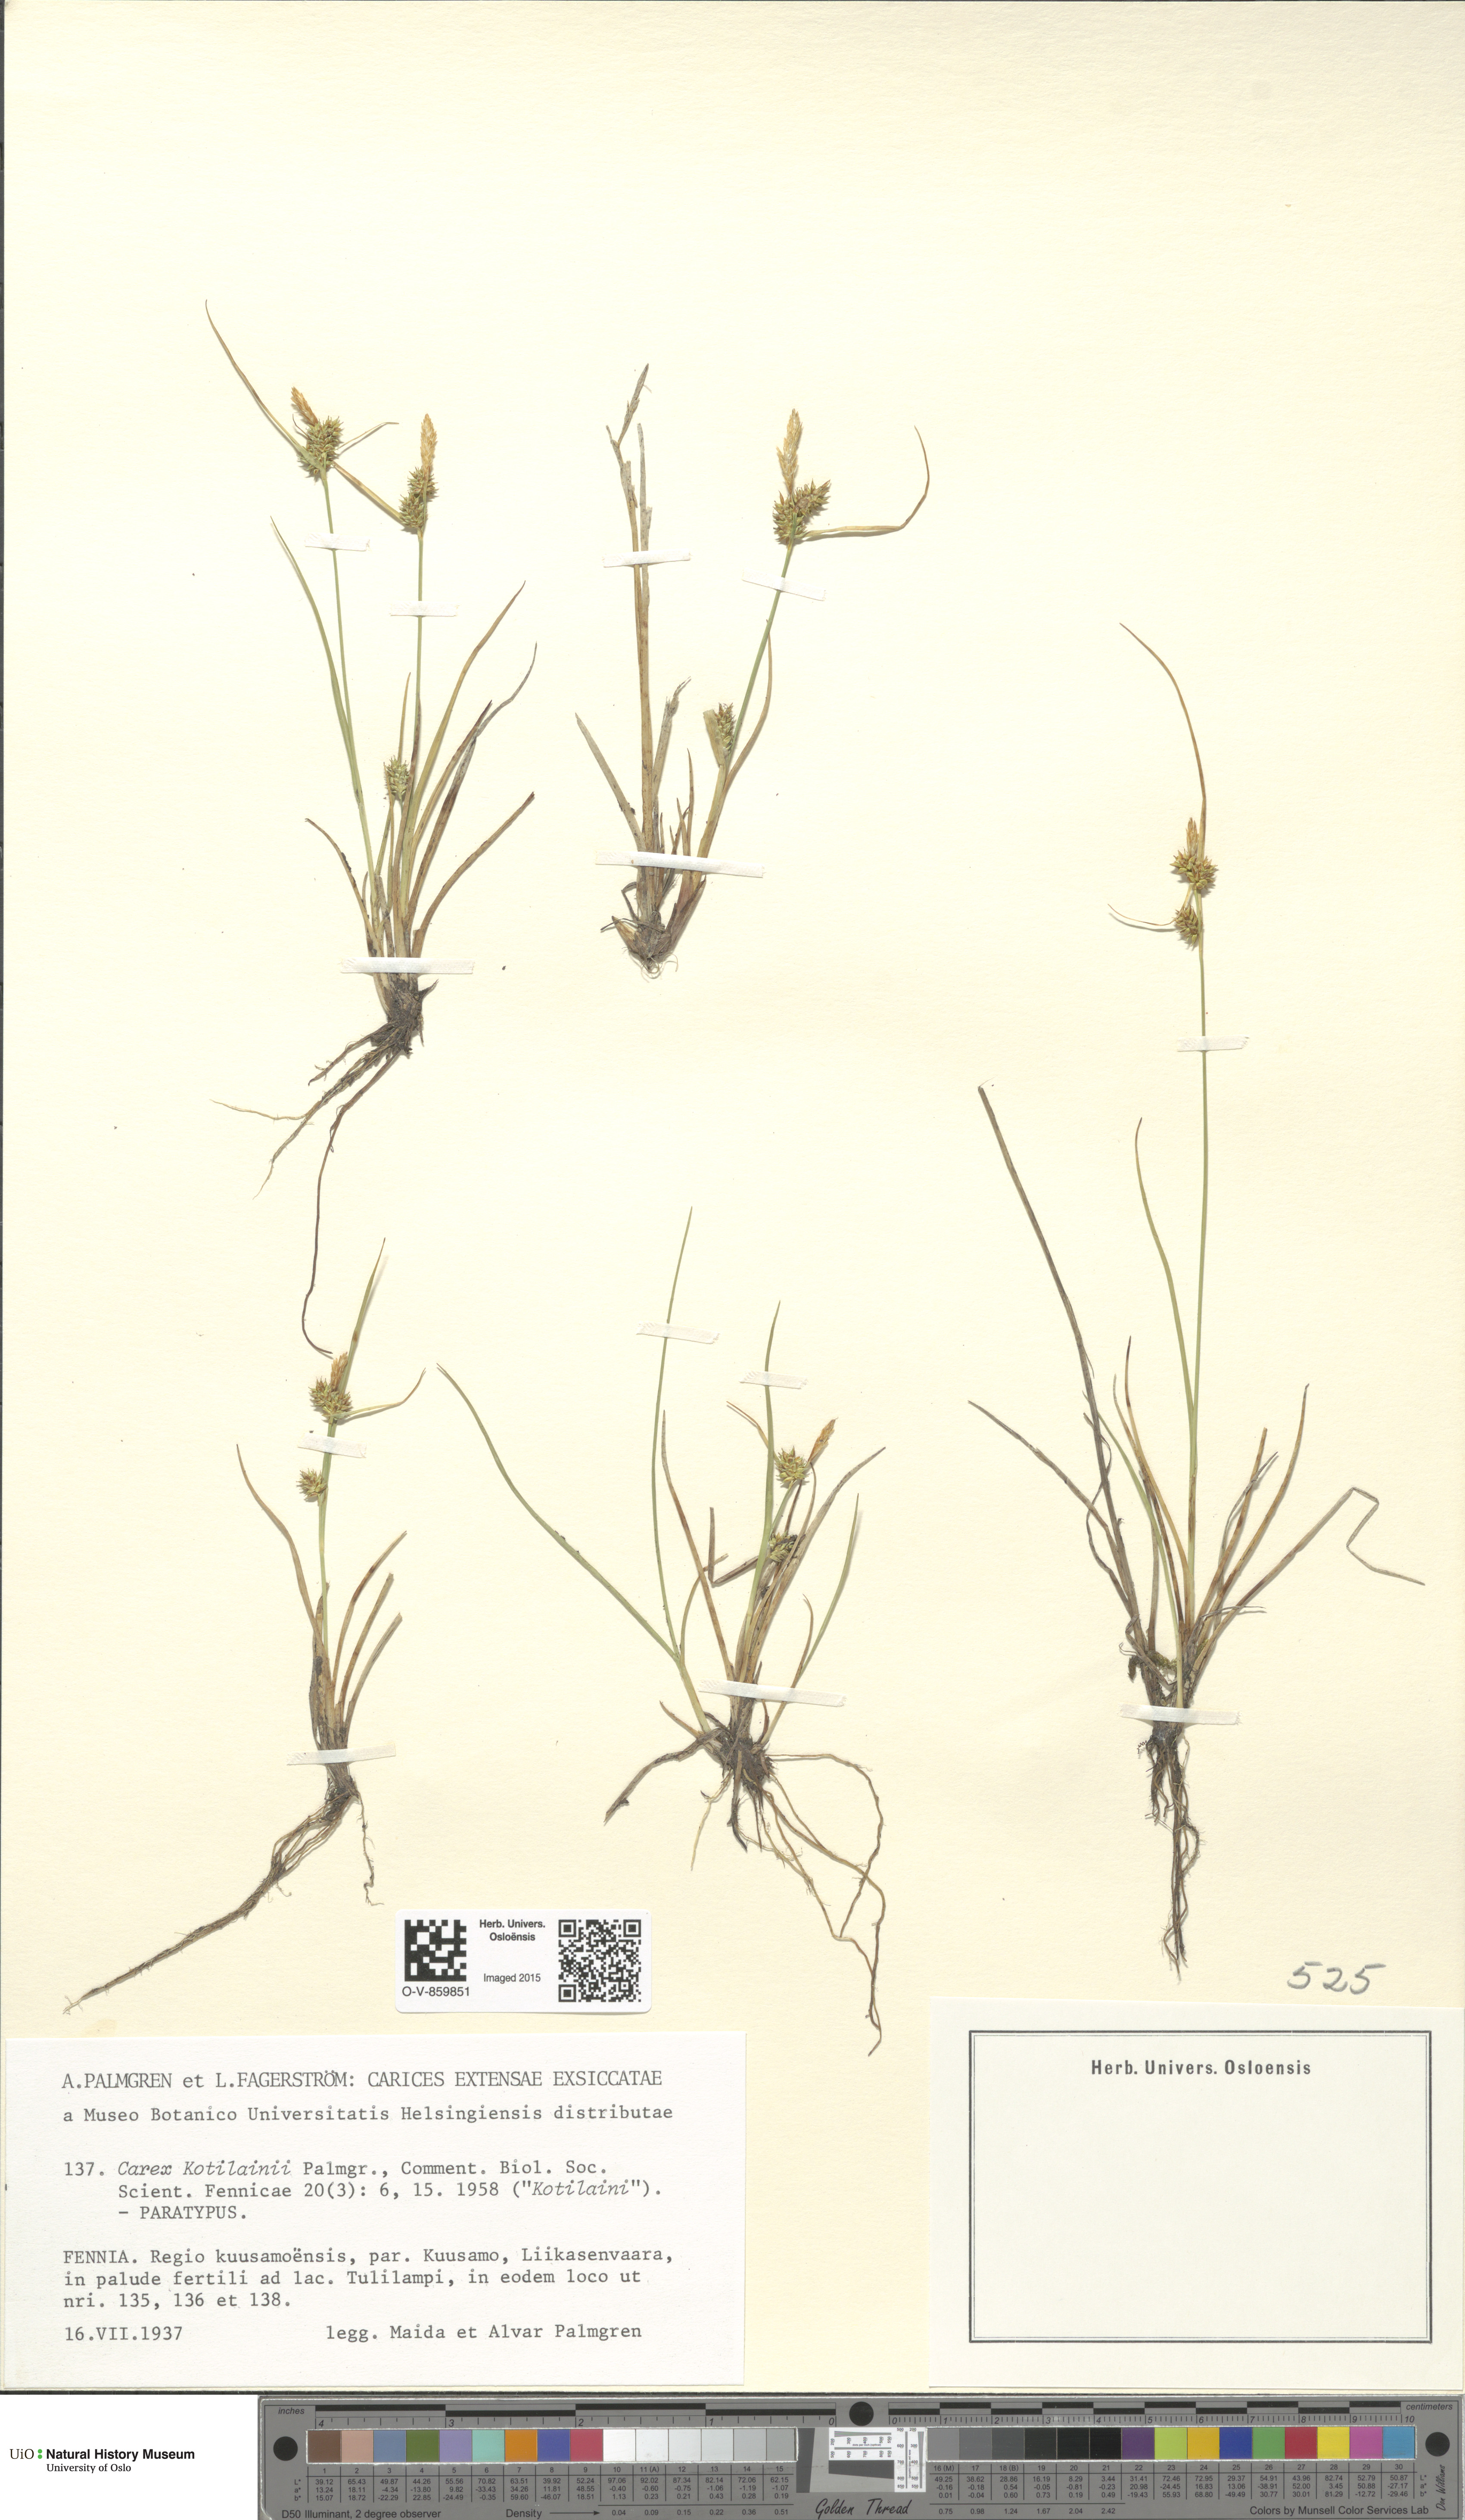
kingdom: Plantae
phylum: Tracheophyta
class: Liliopsida
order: Poales
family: Cyperaceae
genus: Carex
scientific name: Carex oederi
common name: Common & small-fruited yellow-sedge
